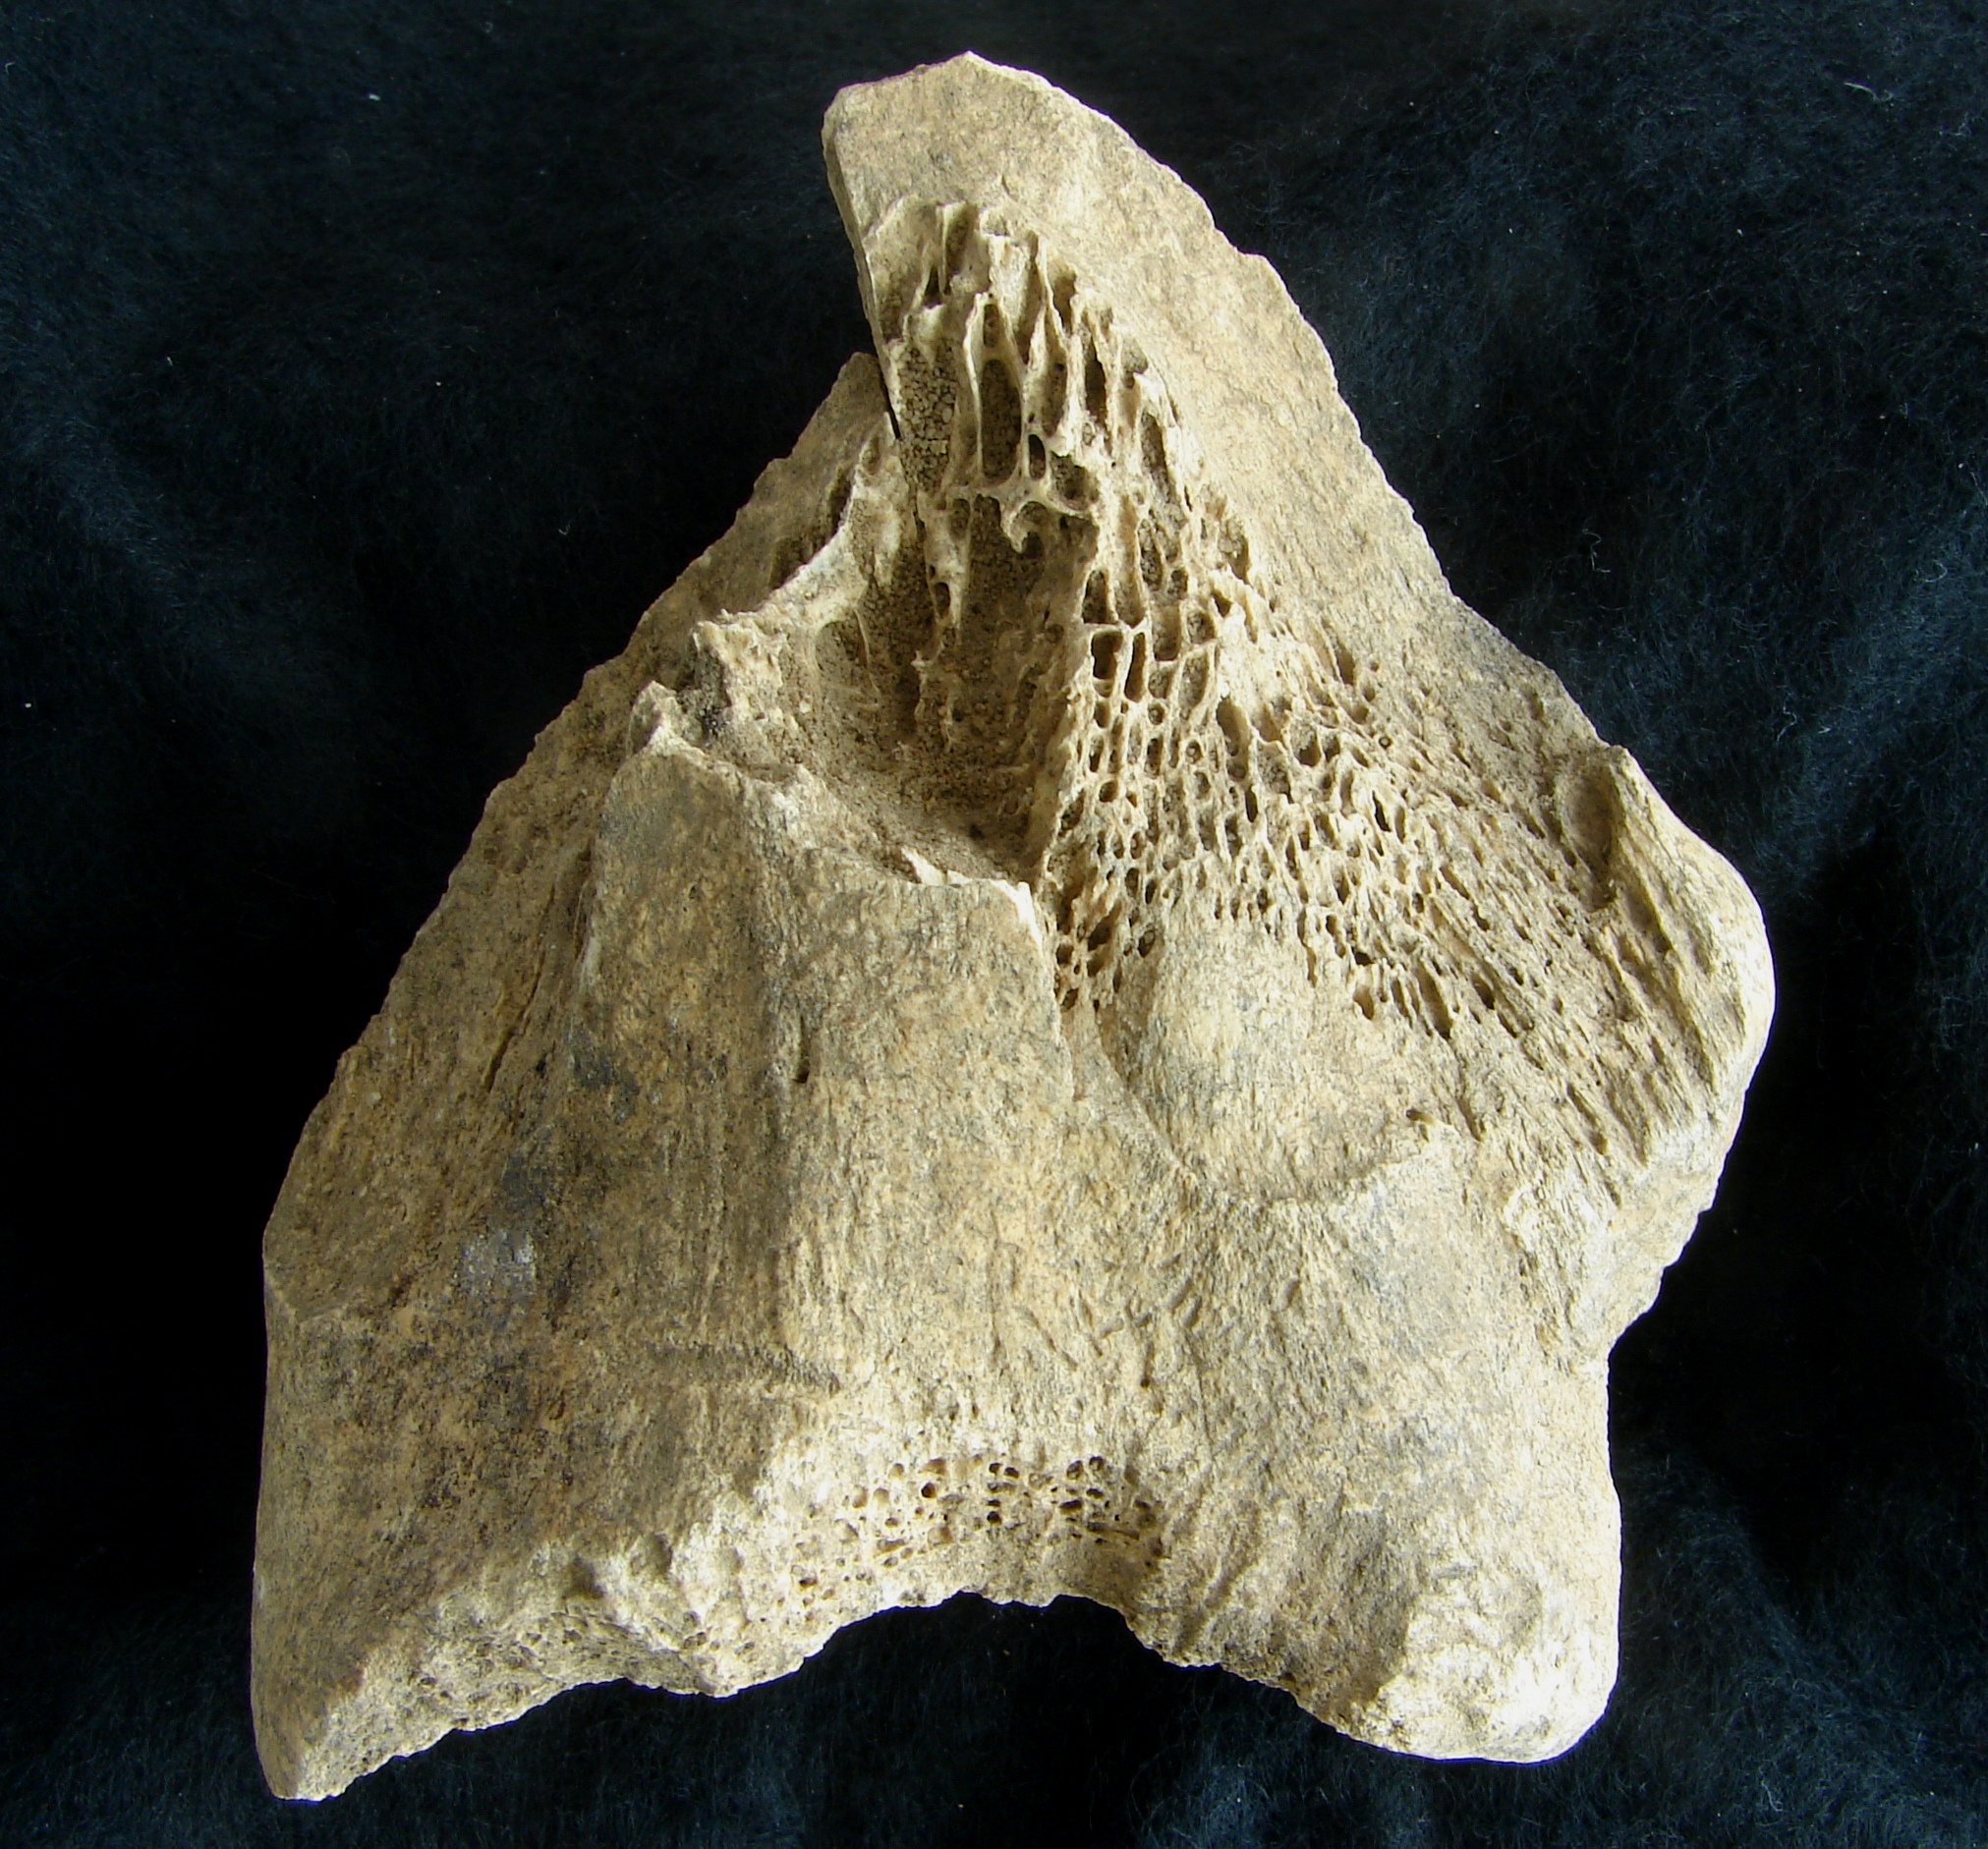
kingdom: Animalia
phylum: Chordata
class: Mammalia
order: Artiodactyla
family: Bovidae
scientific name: Bovidae
